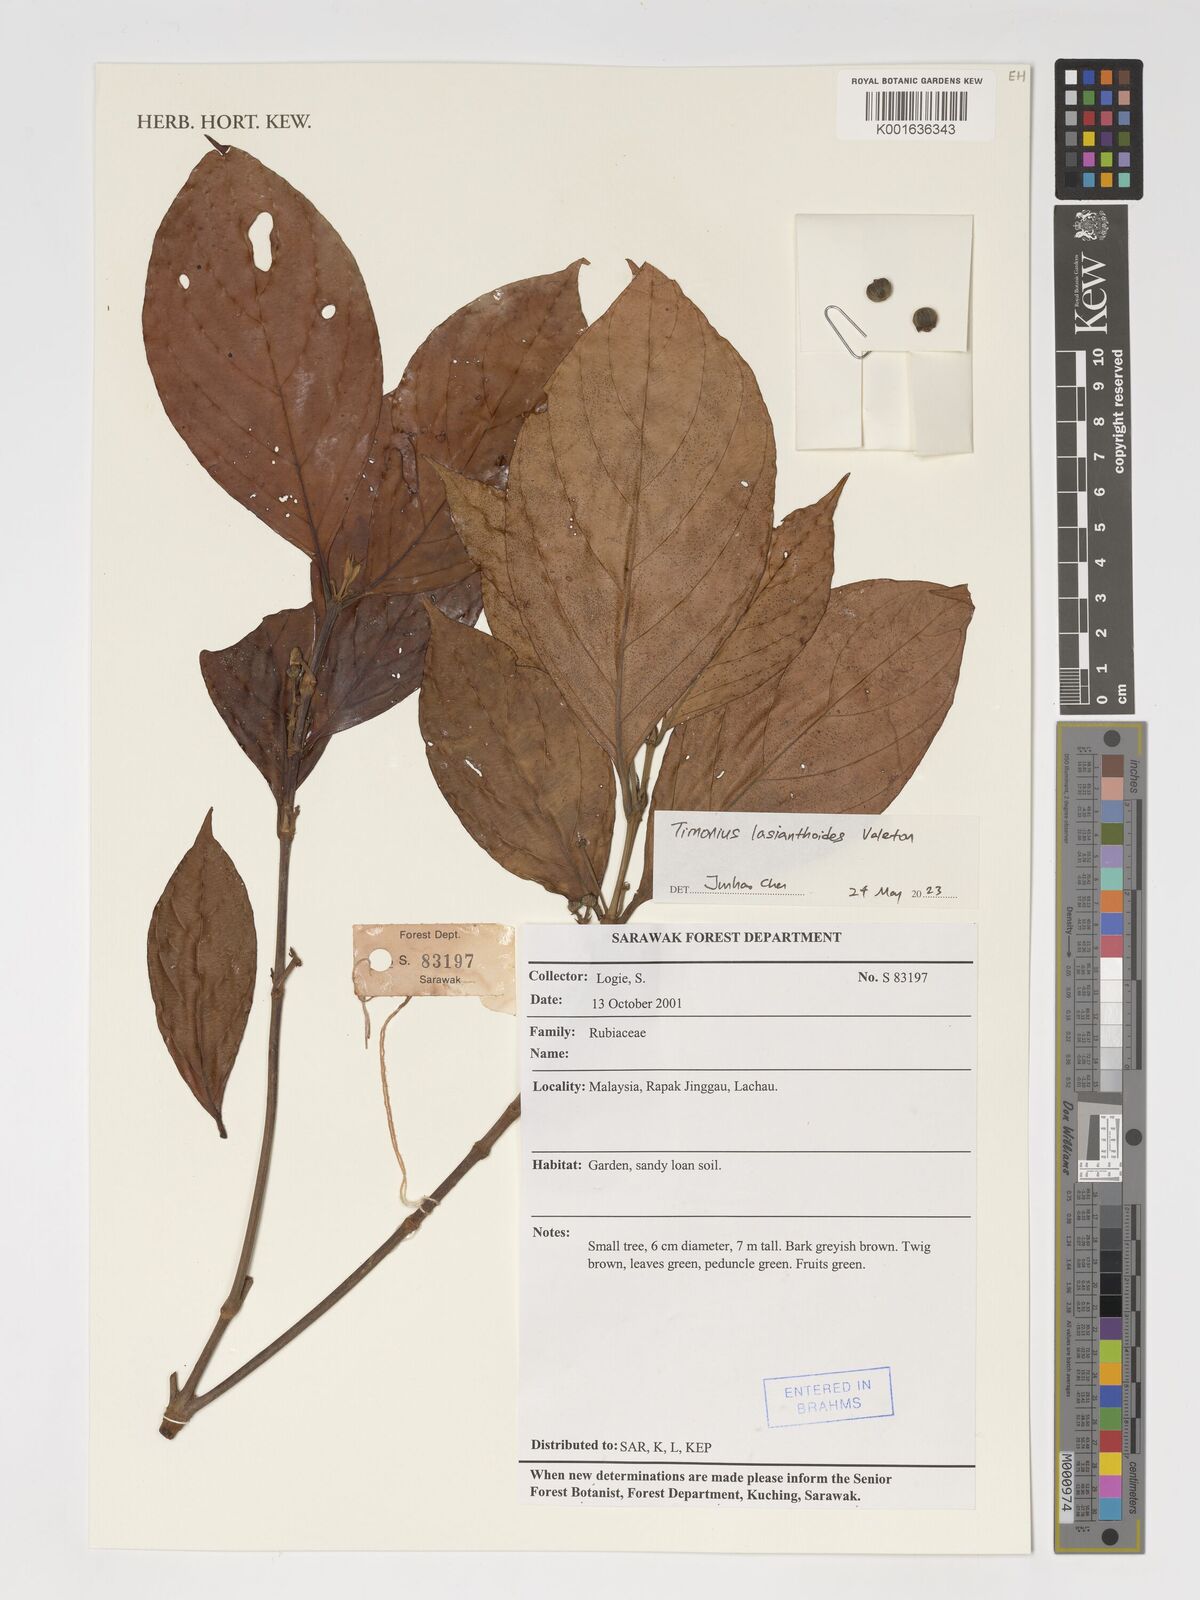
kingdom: Plantae
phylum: Tracheophyta
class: Magnoliopsida
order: Gentianales
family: Rubiaceae
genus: Timonius
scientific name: Timonius lasianthoides
